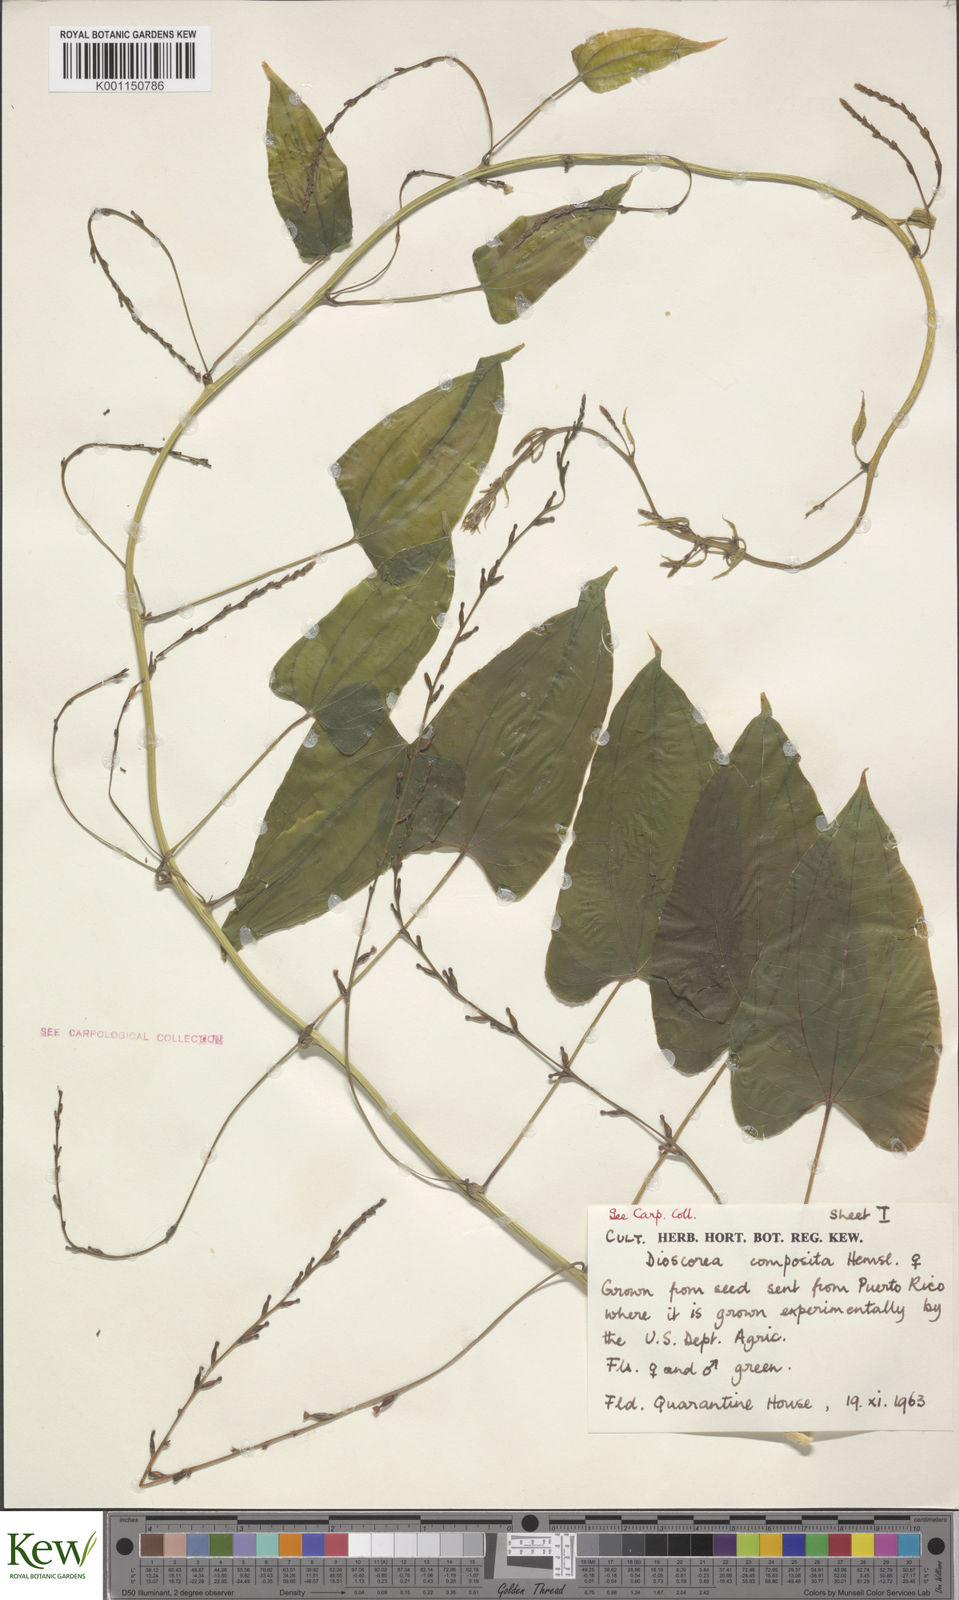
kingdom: Plantae
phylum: Tracheophyta
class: Liliopsida
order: Dioscoreales
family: Dioscoreaceae
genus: Dioscorea
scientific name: Dioscorea composita
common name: Barbasco
